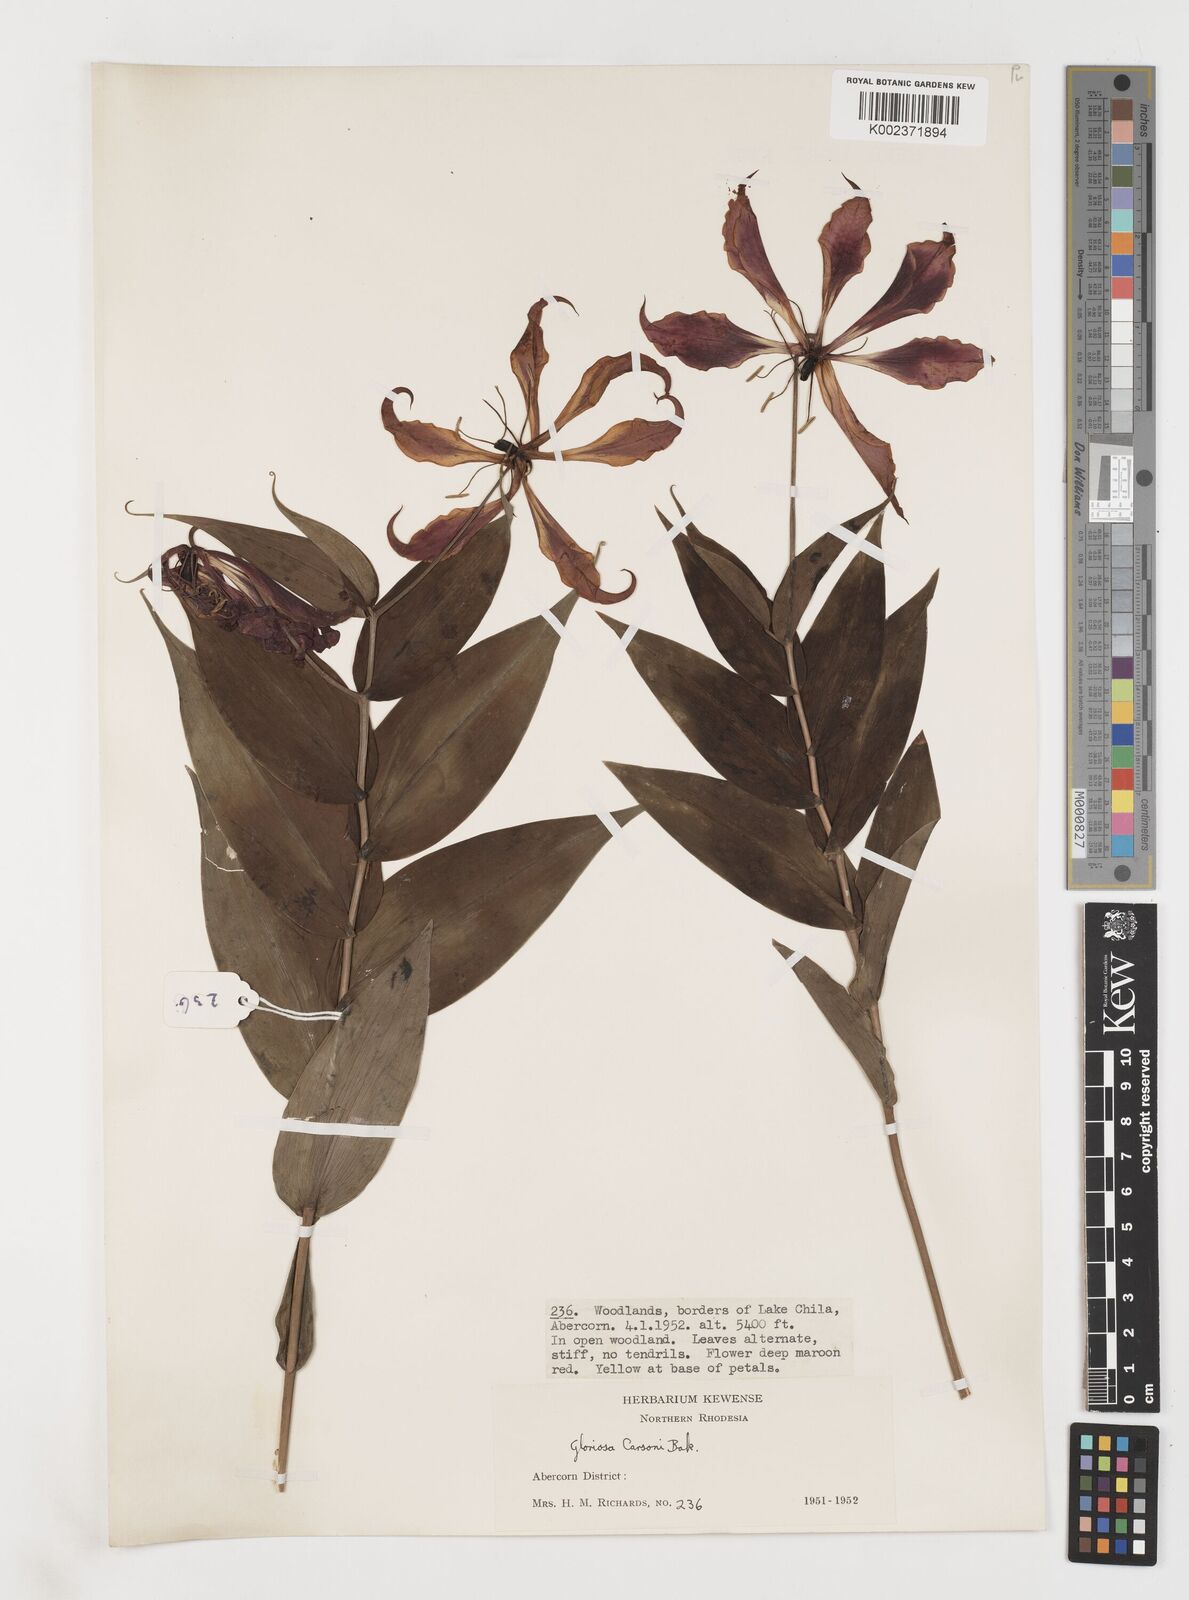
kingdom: Plantae
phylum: Tracheophyta
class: Liliopsida
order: Liliales
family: Colchicaceae
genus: Gloriosa
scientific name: Gloriosa simplex
